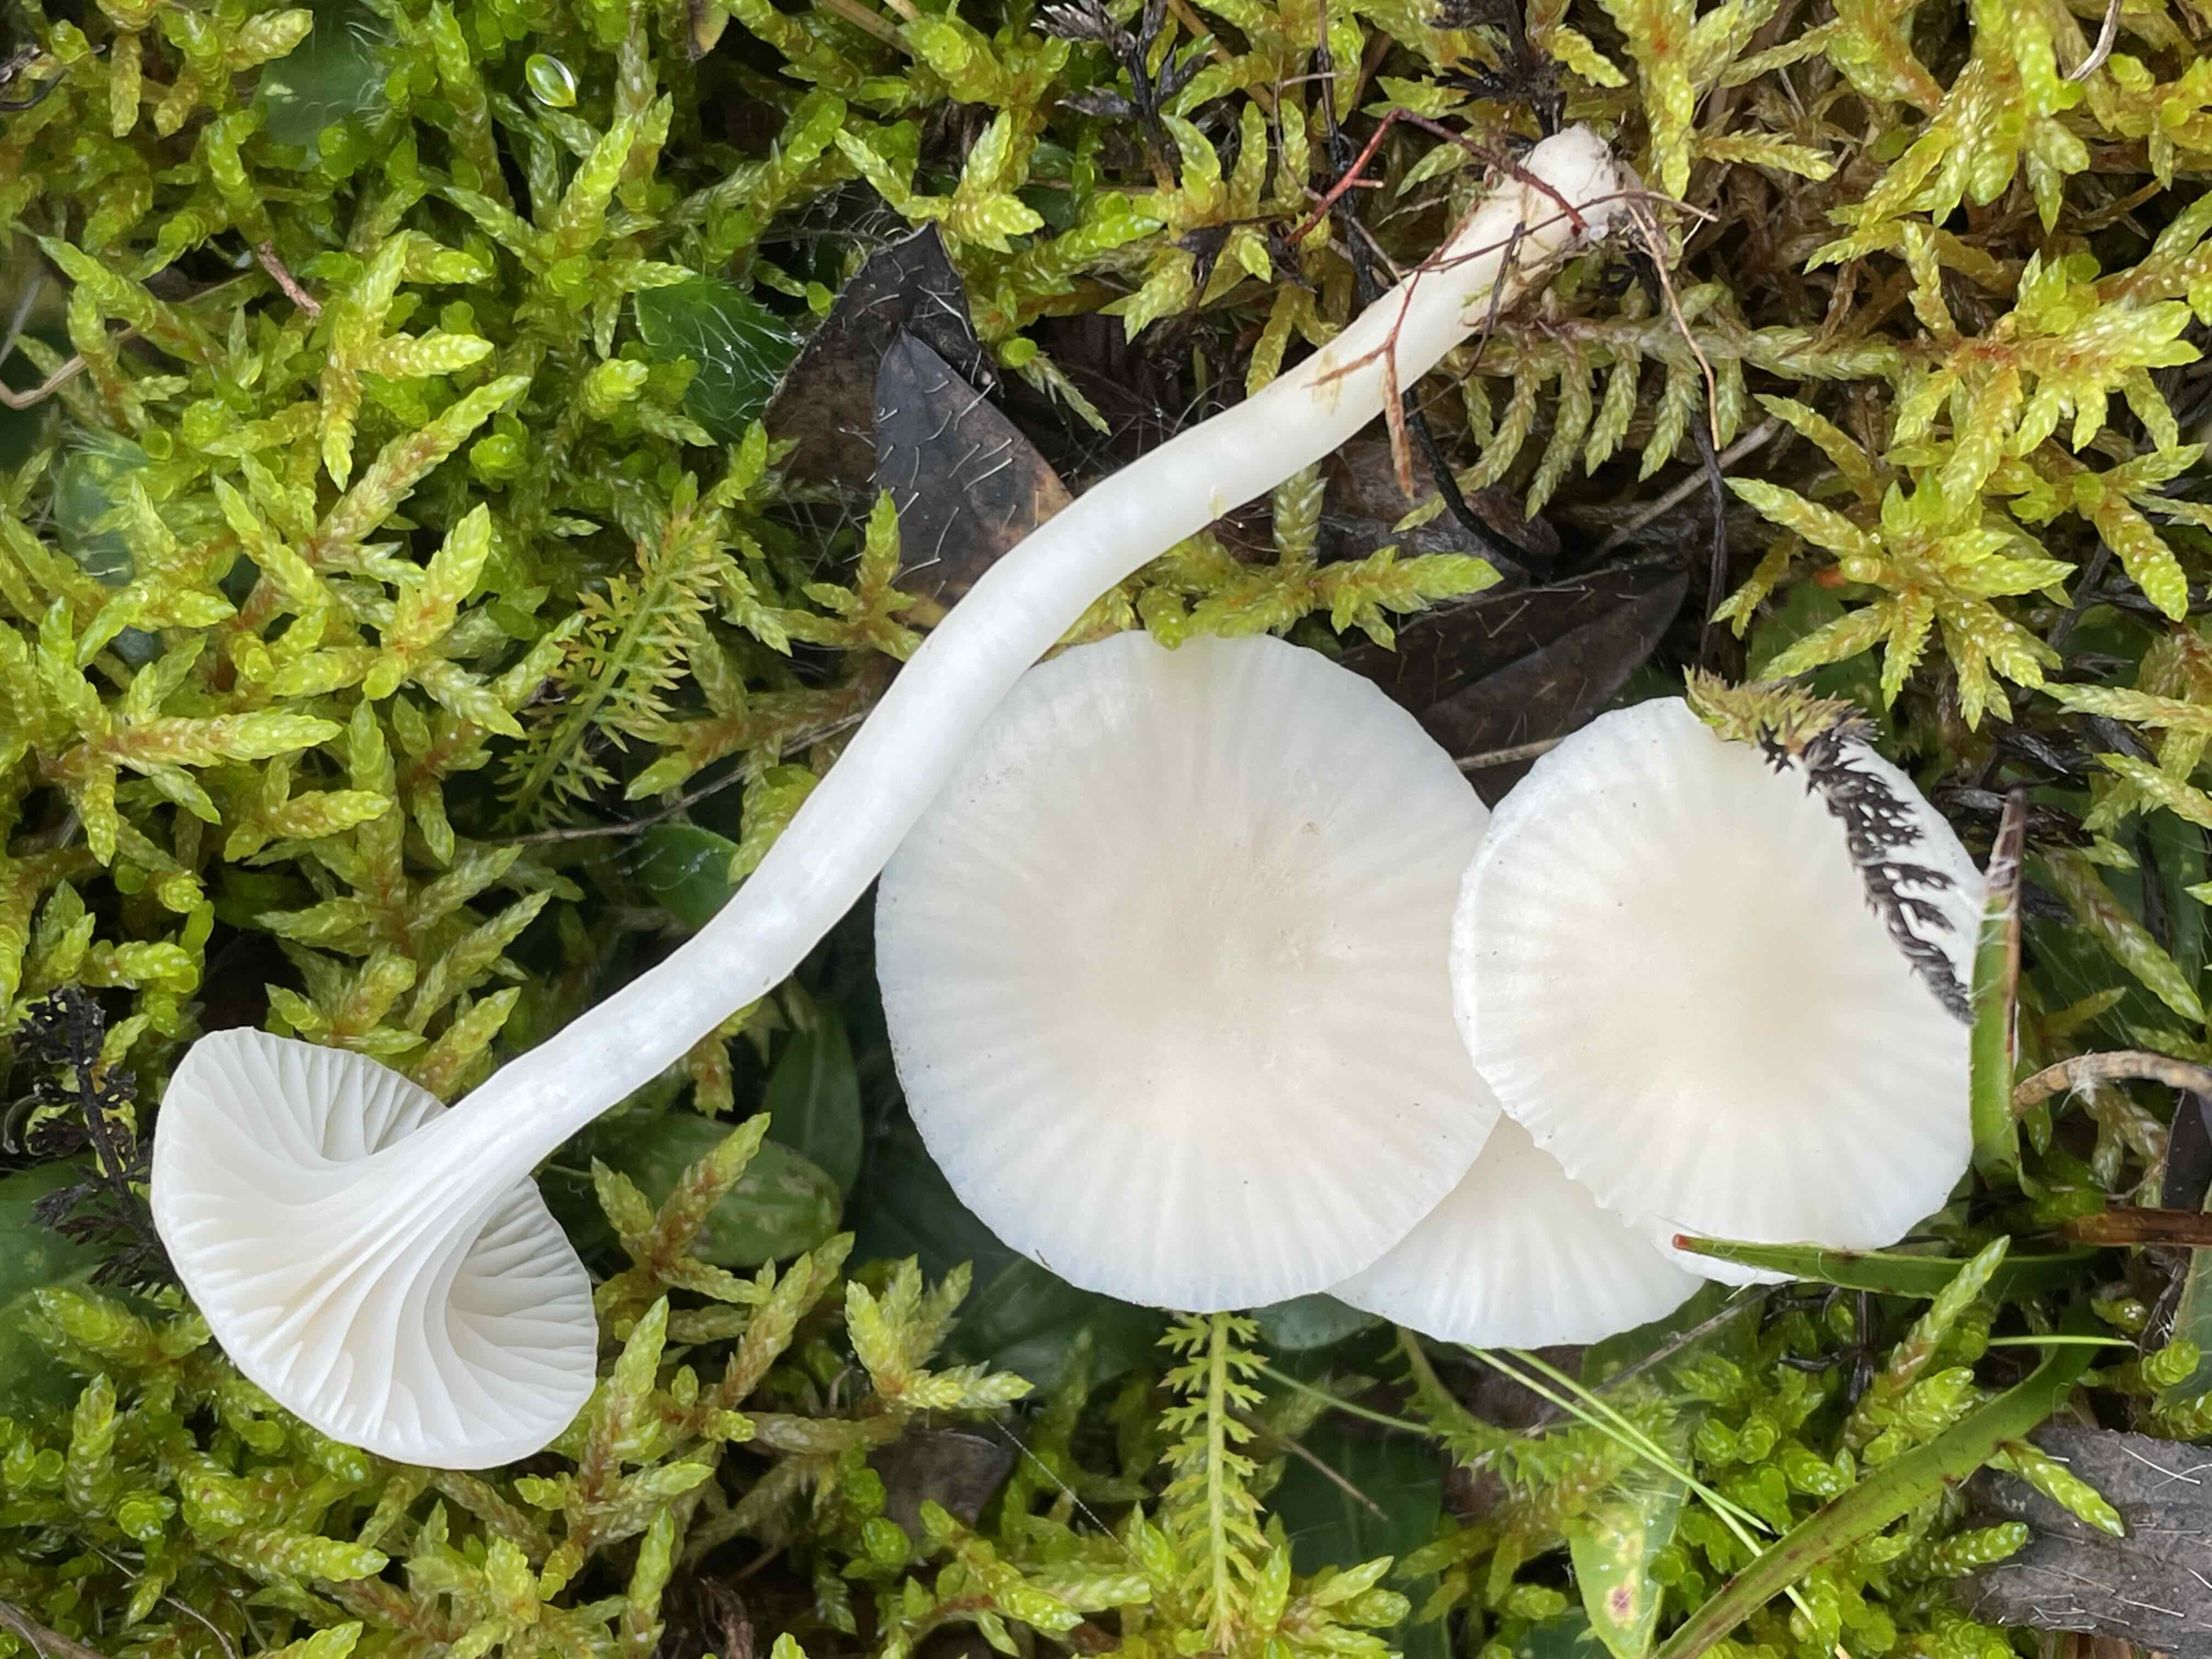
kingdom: Fungi
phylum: Basidiomycota
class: Agaricomycetes
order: Agaricales
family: Hygrophoraceae
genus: Cuphophyllus
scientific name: Cuphophyllus virgineus
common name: snehvid vokshat
